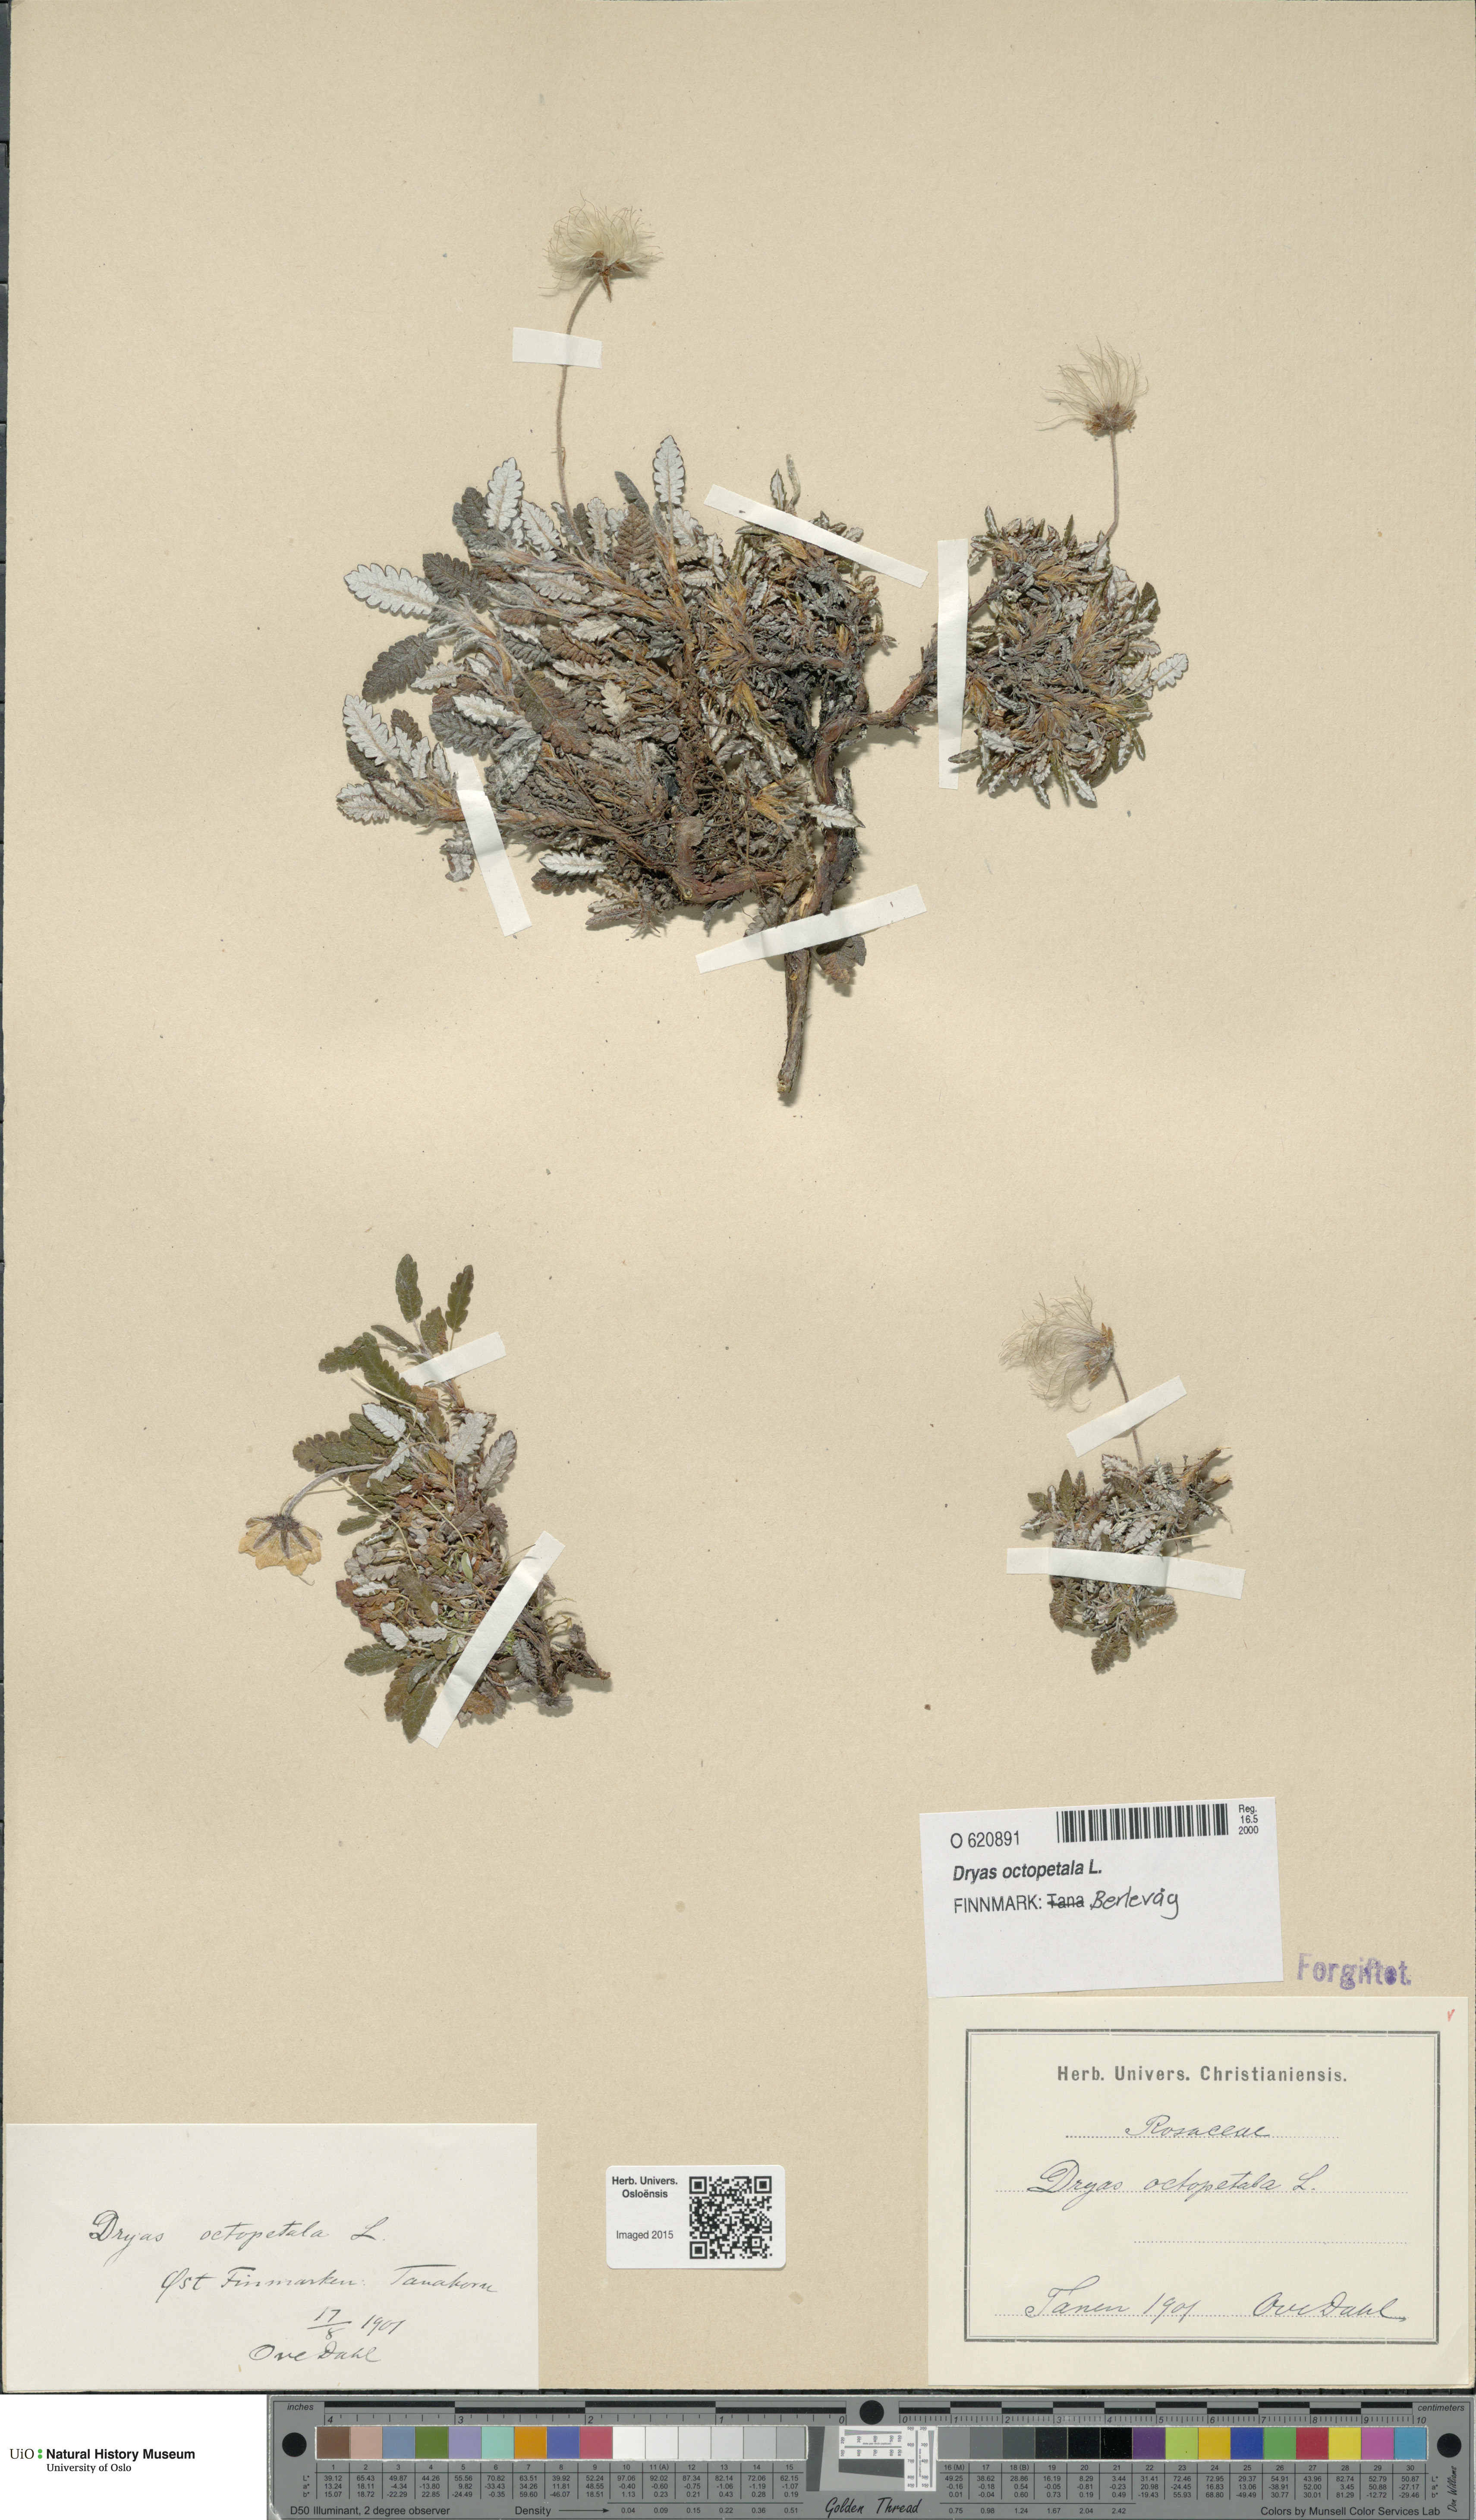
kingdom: Plantae
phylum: Tracheophyta
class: Magnoliopsida
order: Rosales
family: Rosaceae
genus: Dryas
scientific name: Dryas octopetala
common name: Eight-petal mountain-avens
